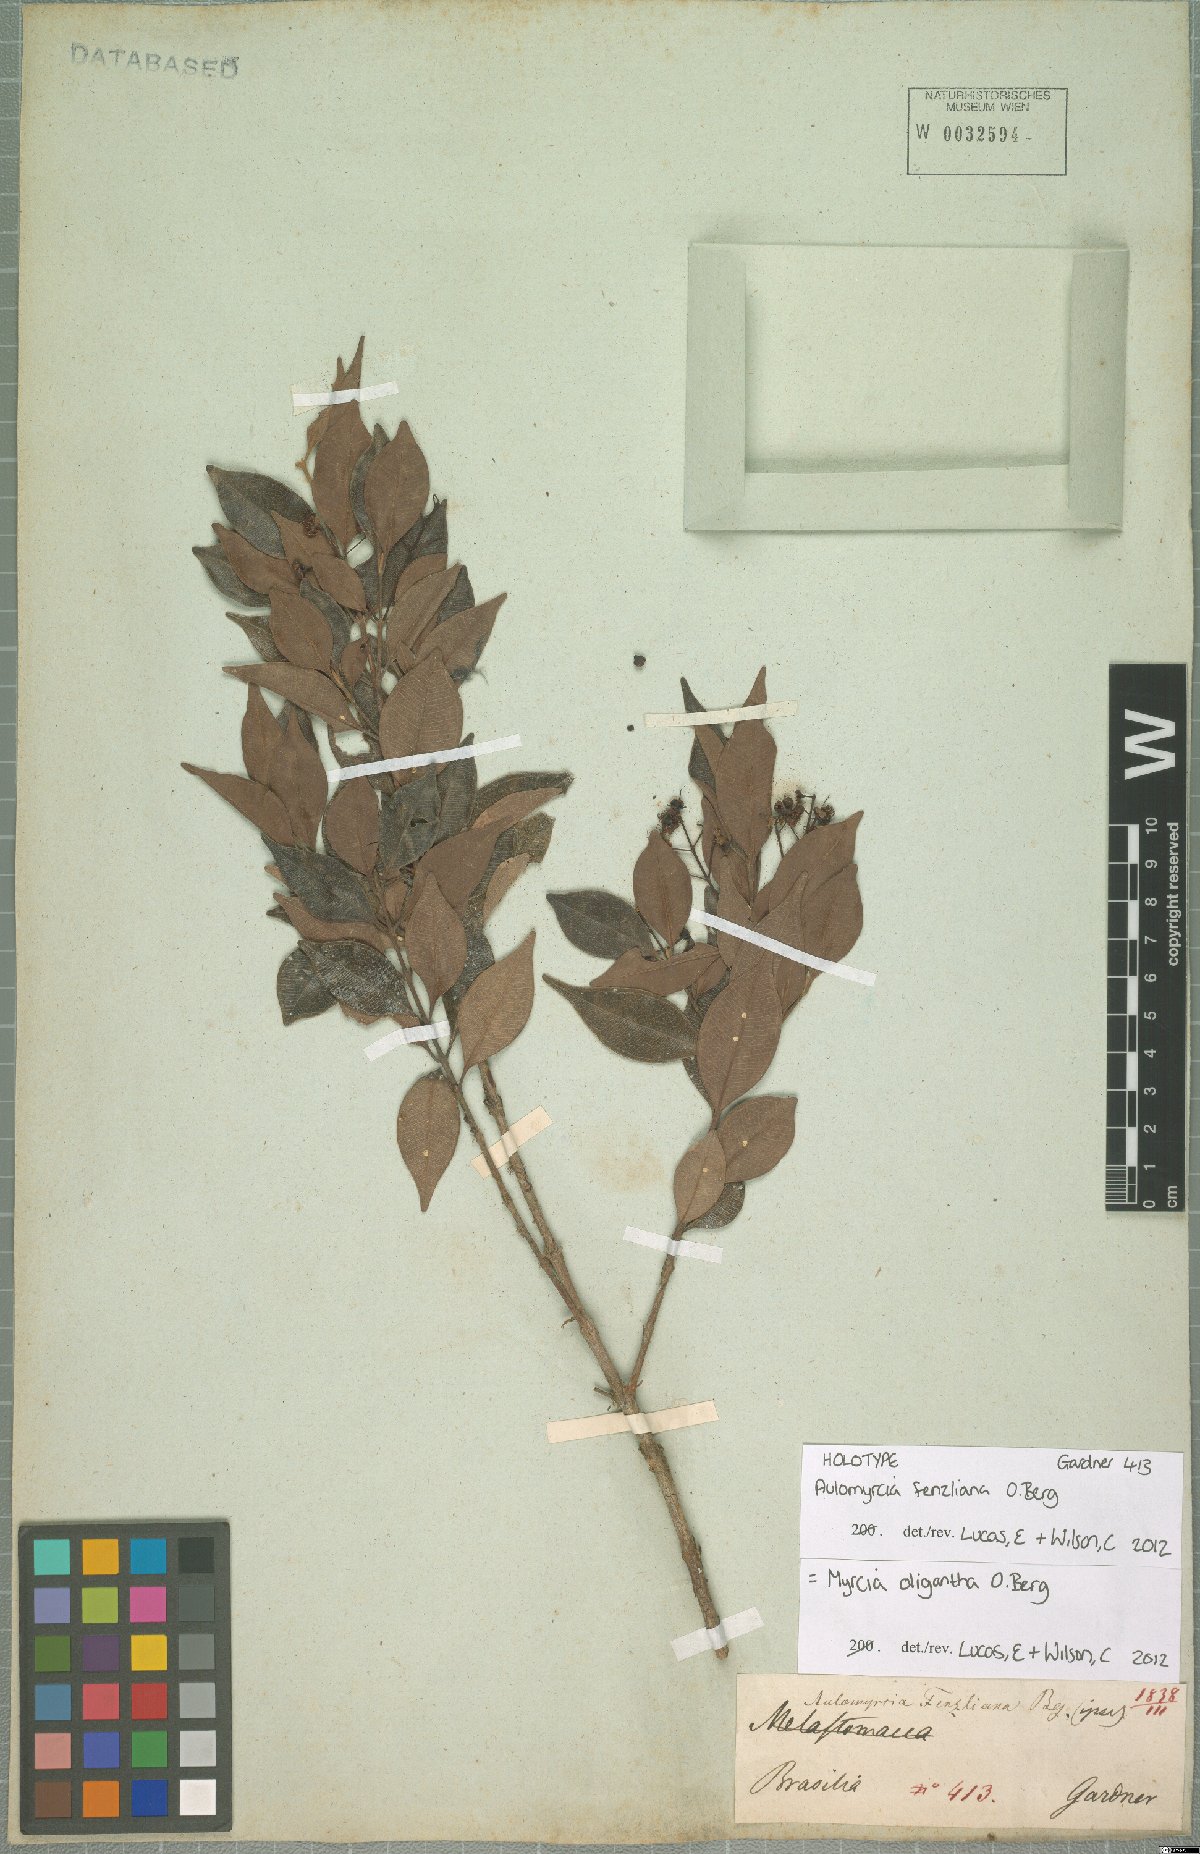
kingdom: Plantae
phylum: Tracheophyta
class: Magnoliopsida
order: Myrtales
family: Myrtaceae
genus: Myrcia
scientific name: Myrcia oligantha
